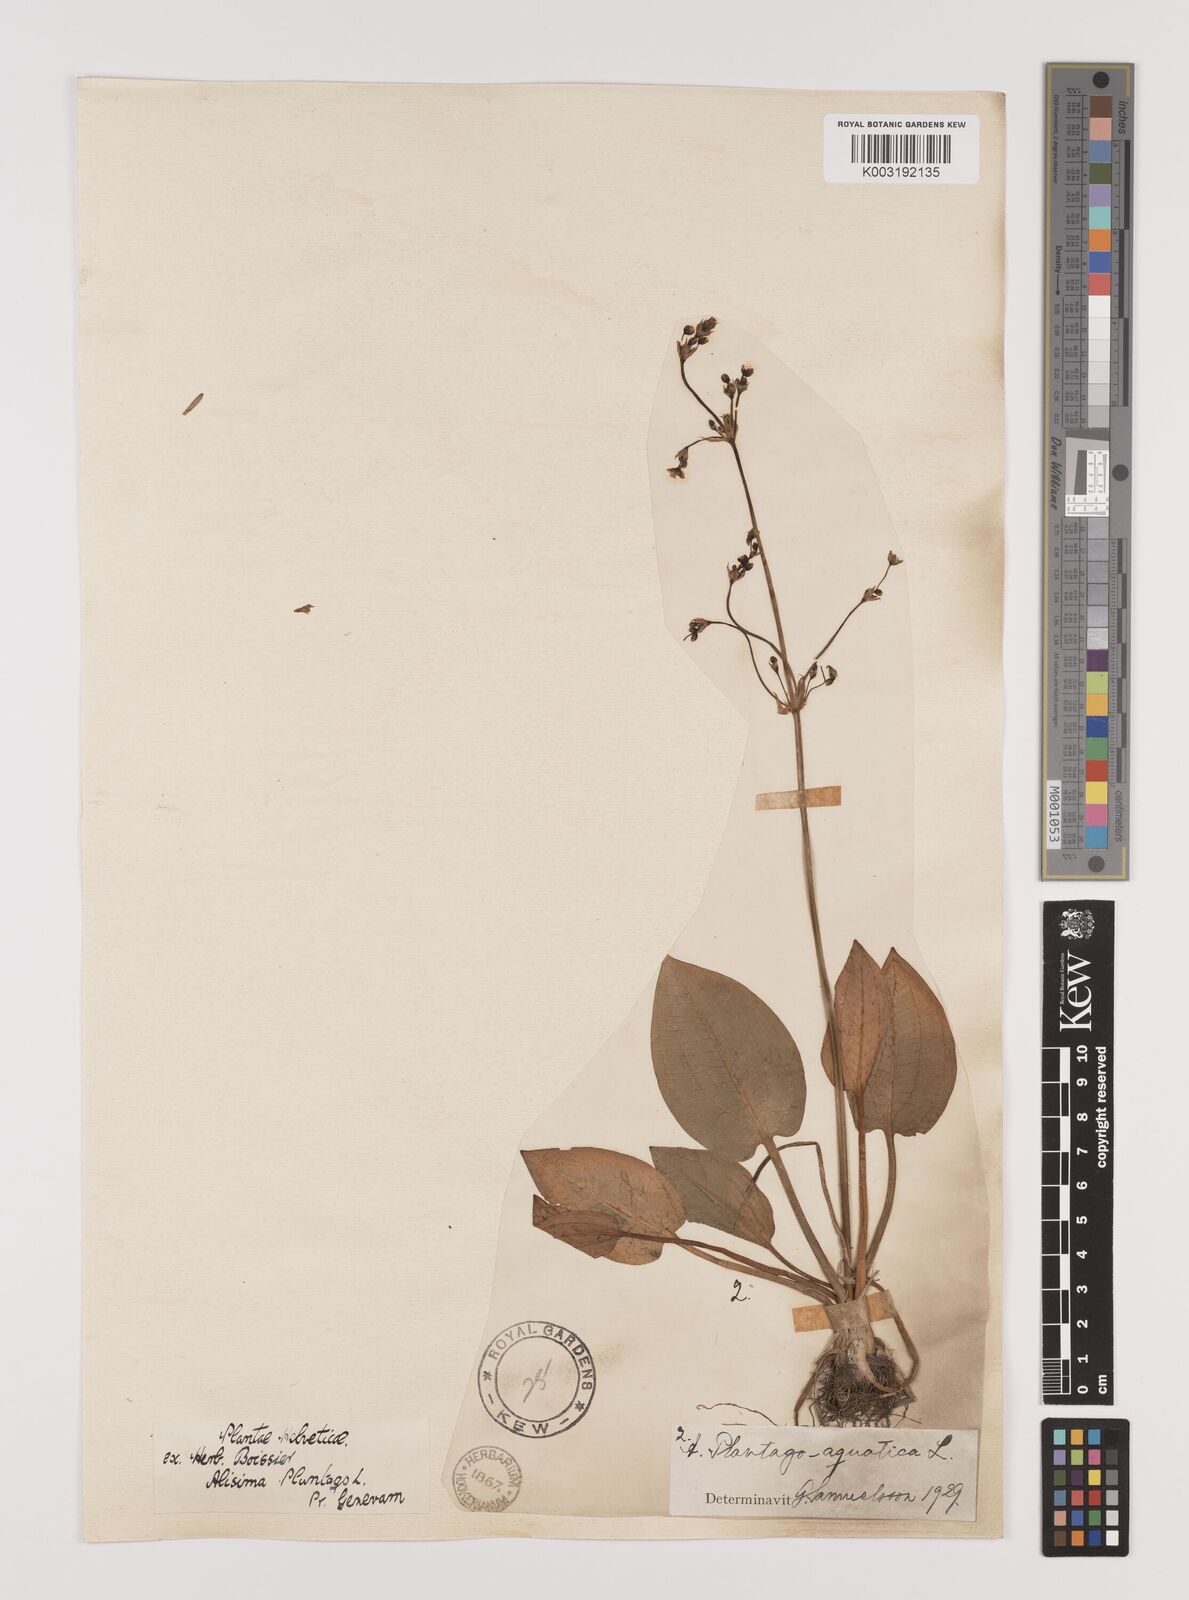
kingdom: Plantae
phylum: Tracheophyta
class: Liliopsida
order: Alismatales
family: Alismataceae
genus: Alisma
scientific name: Alisma plantago-aquatica
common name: Water-plantain
